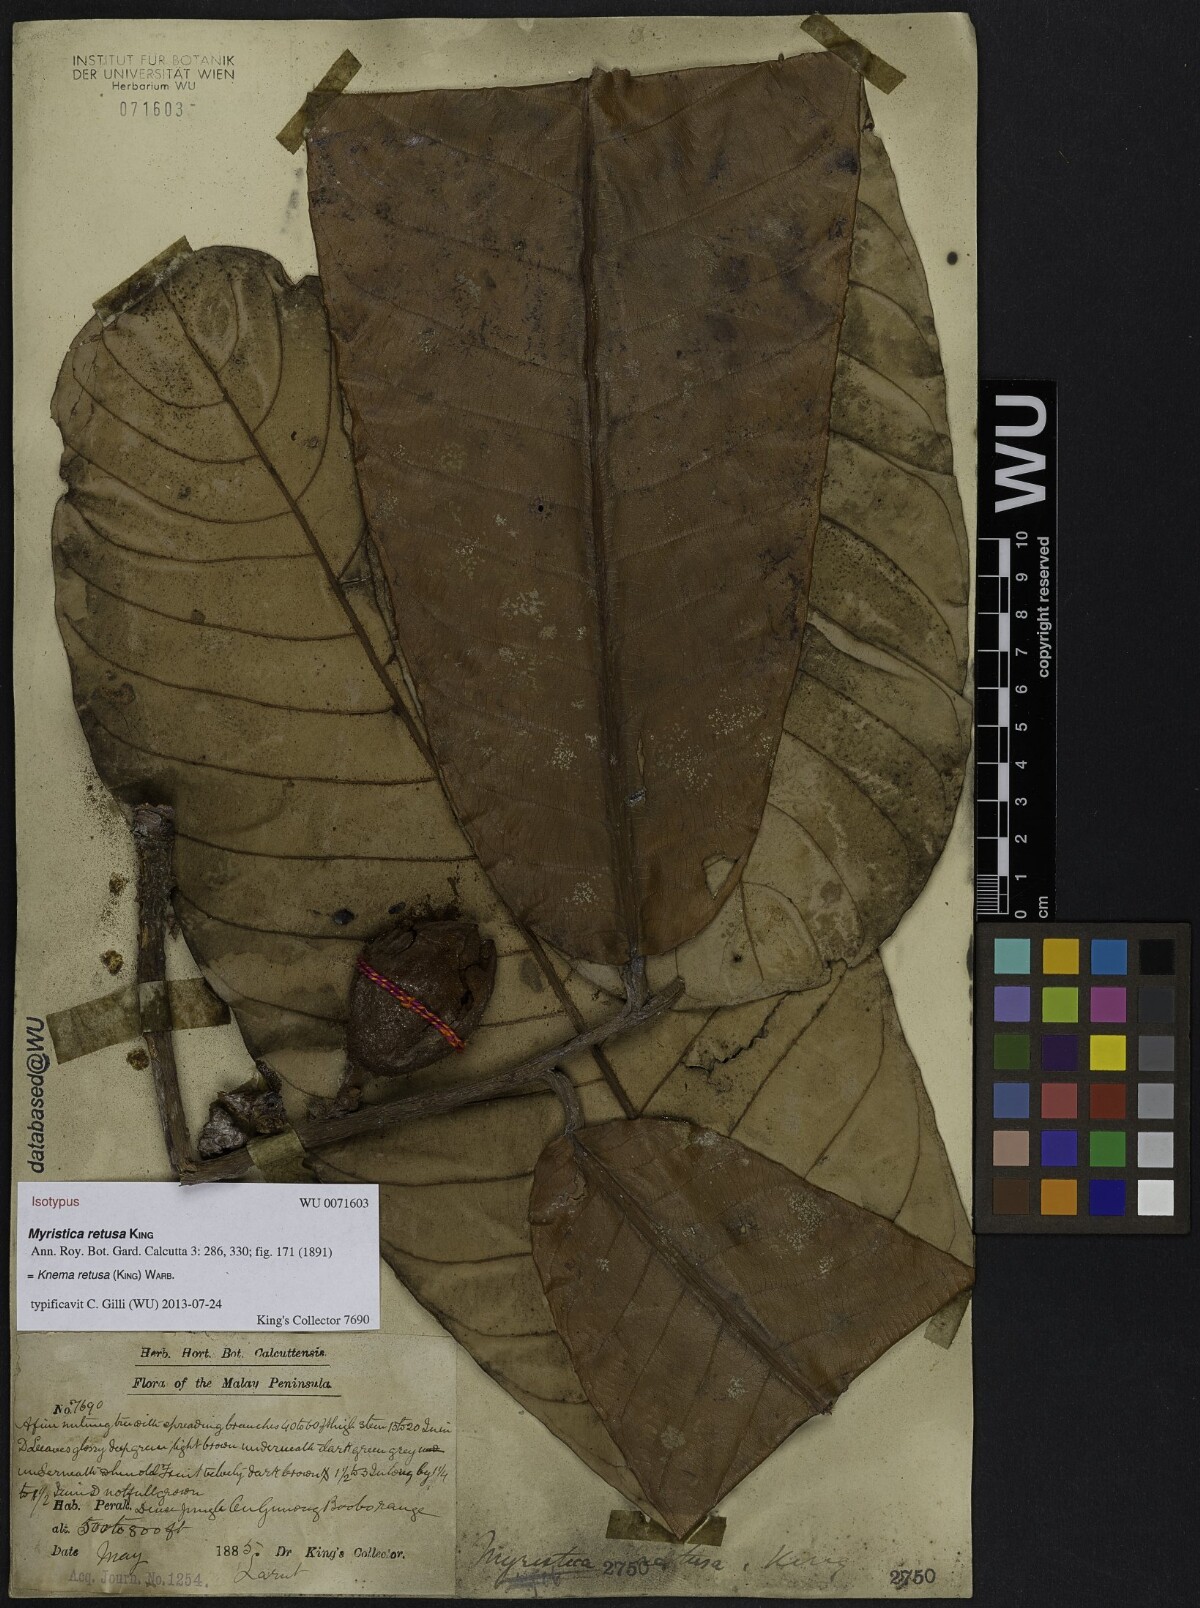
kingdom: Plantae
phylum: Tracheophyta
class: Magnoliopsida
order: Magnoliales
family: Myristicaceae
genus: Knema
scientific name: Knema retusa
